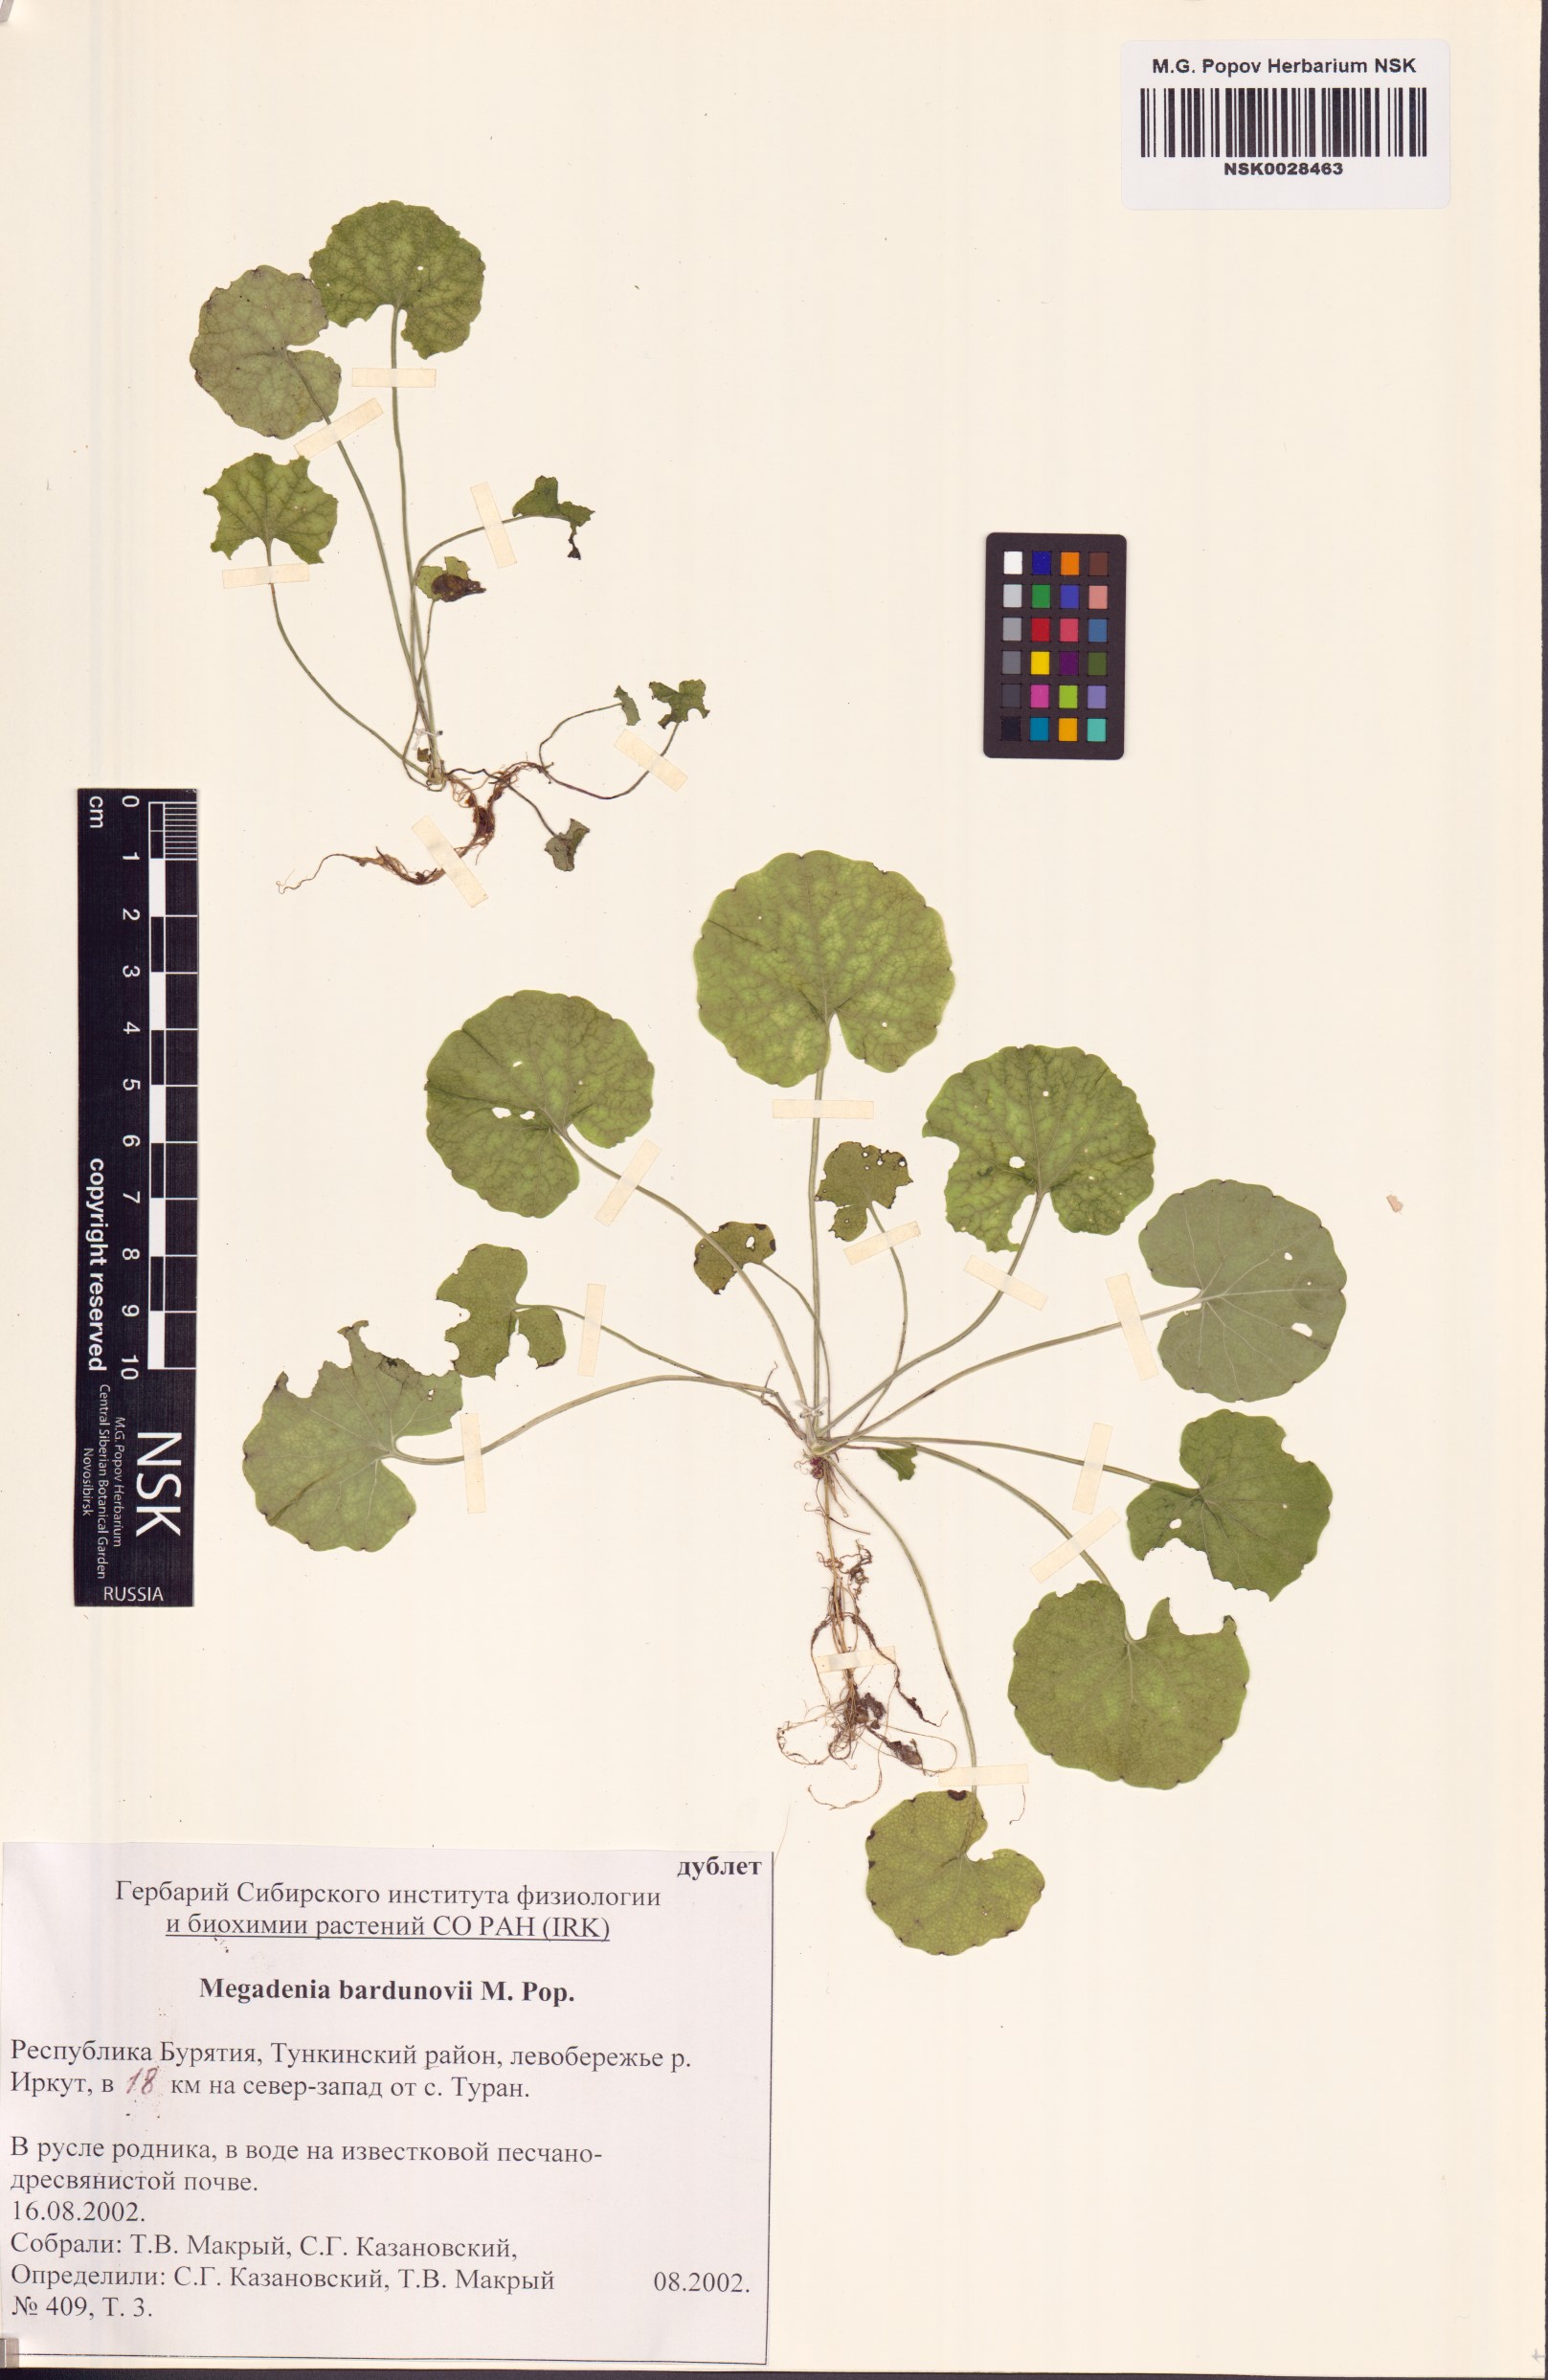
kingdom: Plantae
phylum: Tracheophyta
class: Magnoliopsida
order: Brassicales
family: Brassicaceae
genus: Megadenia
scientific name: Megadenia pygmaea
